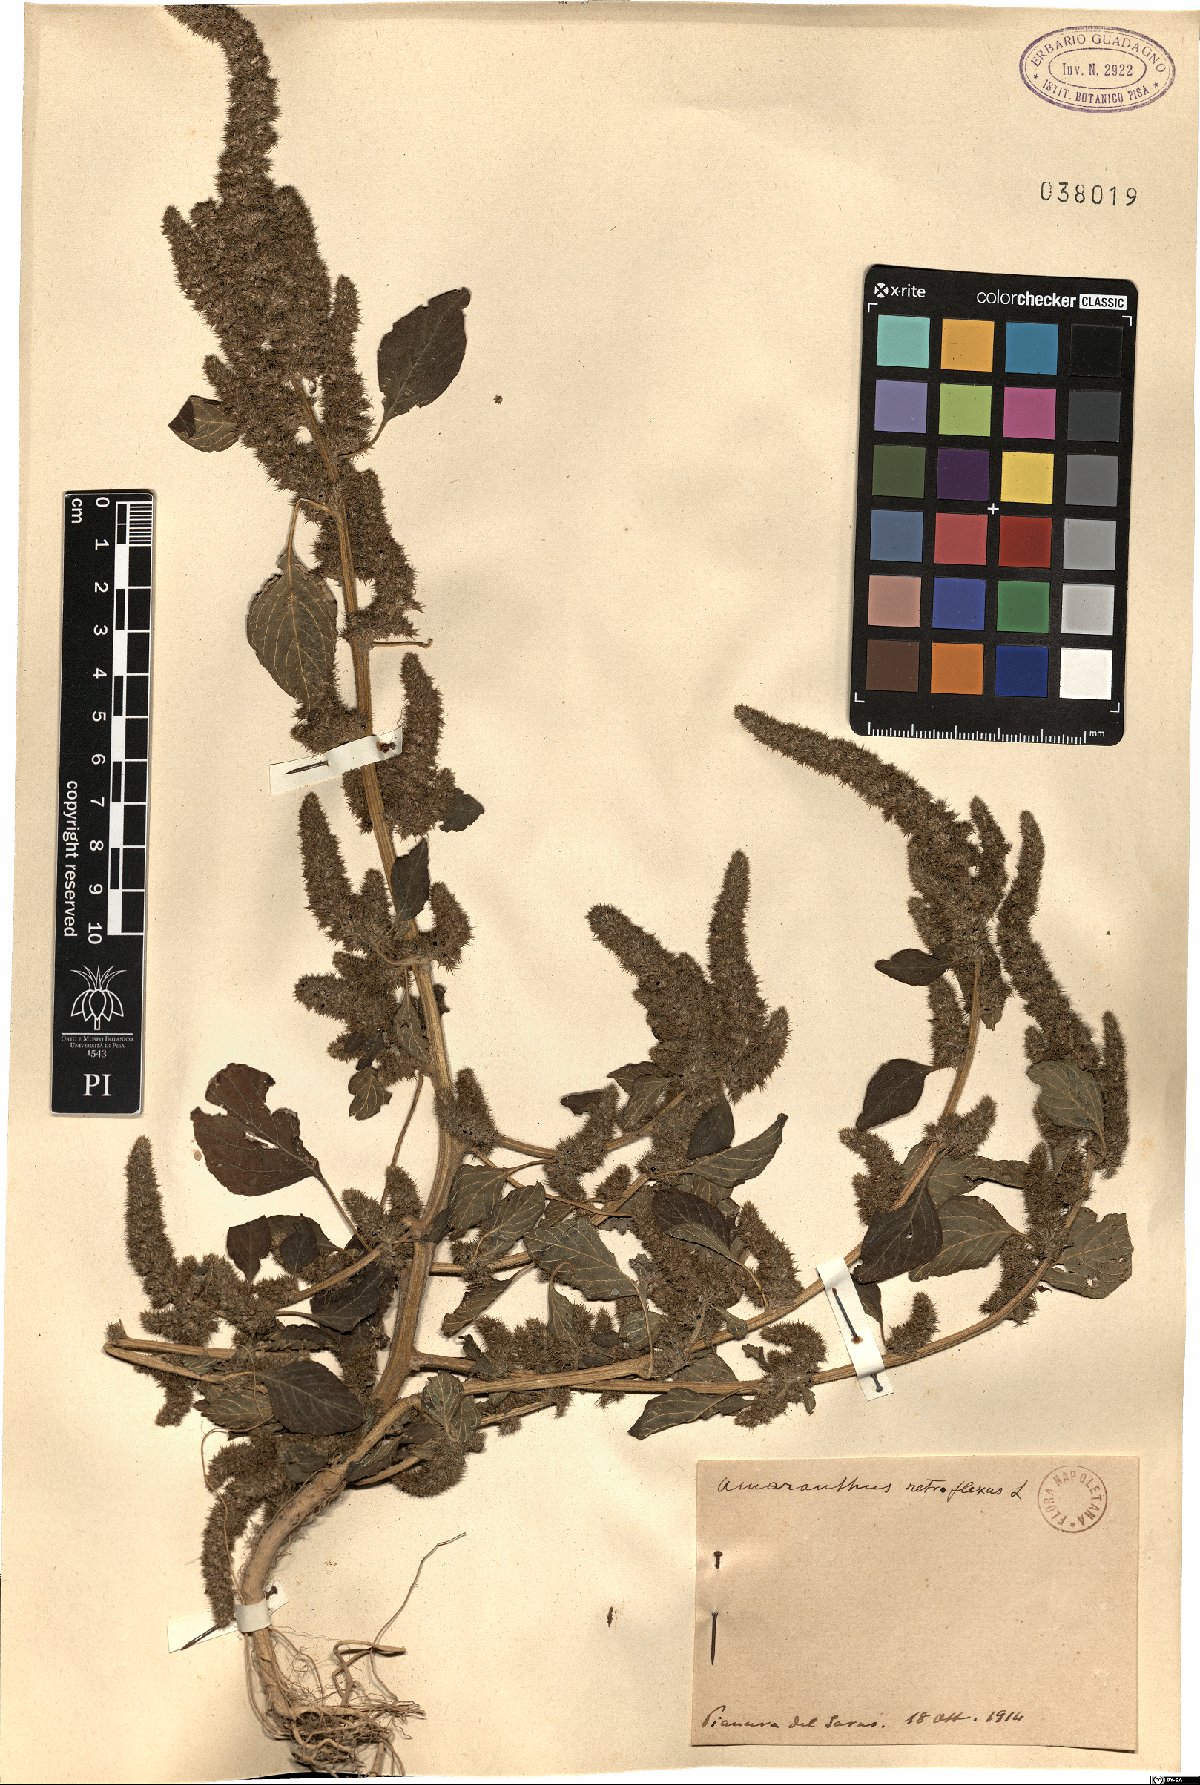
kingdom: Plantae
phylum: Tracheophyta
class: Magnoliopsida
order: Caryophyllales
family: Amaranthaceae
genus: Amaranthus
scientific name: Amaranthus retroflexus
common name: Redroot amaranth
